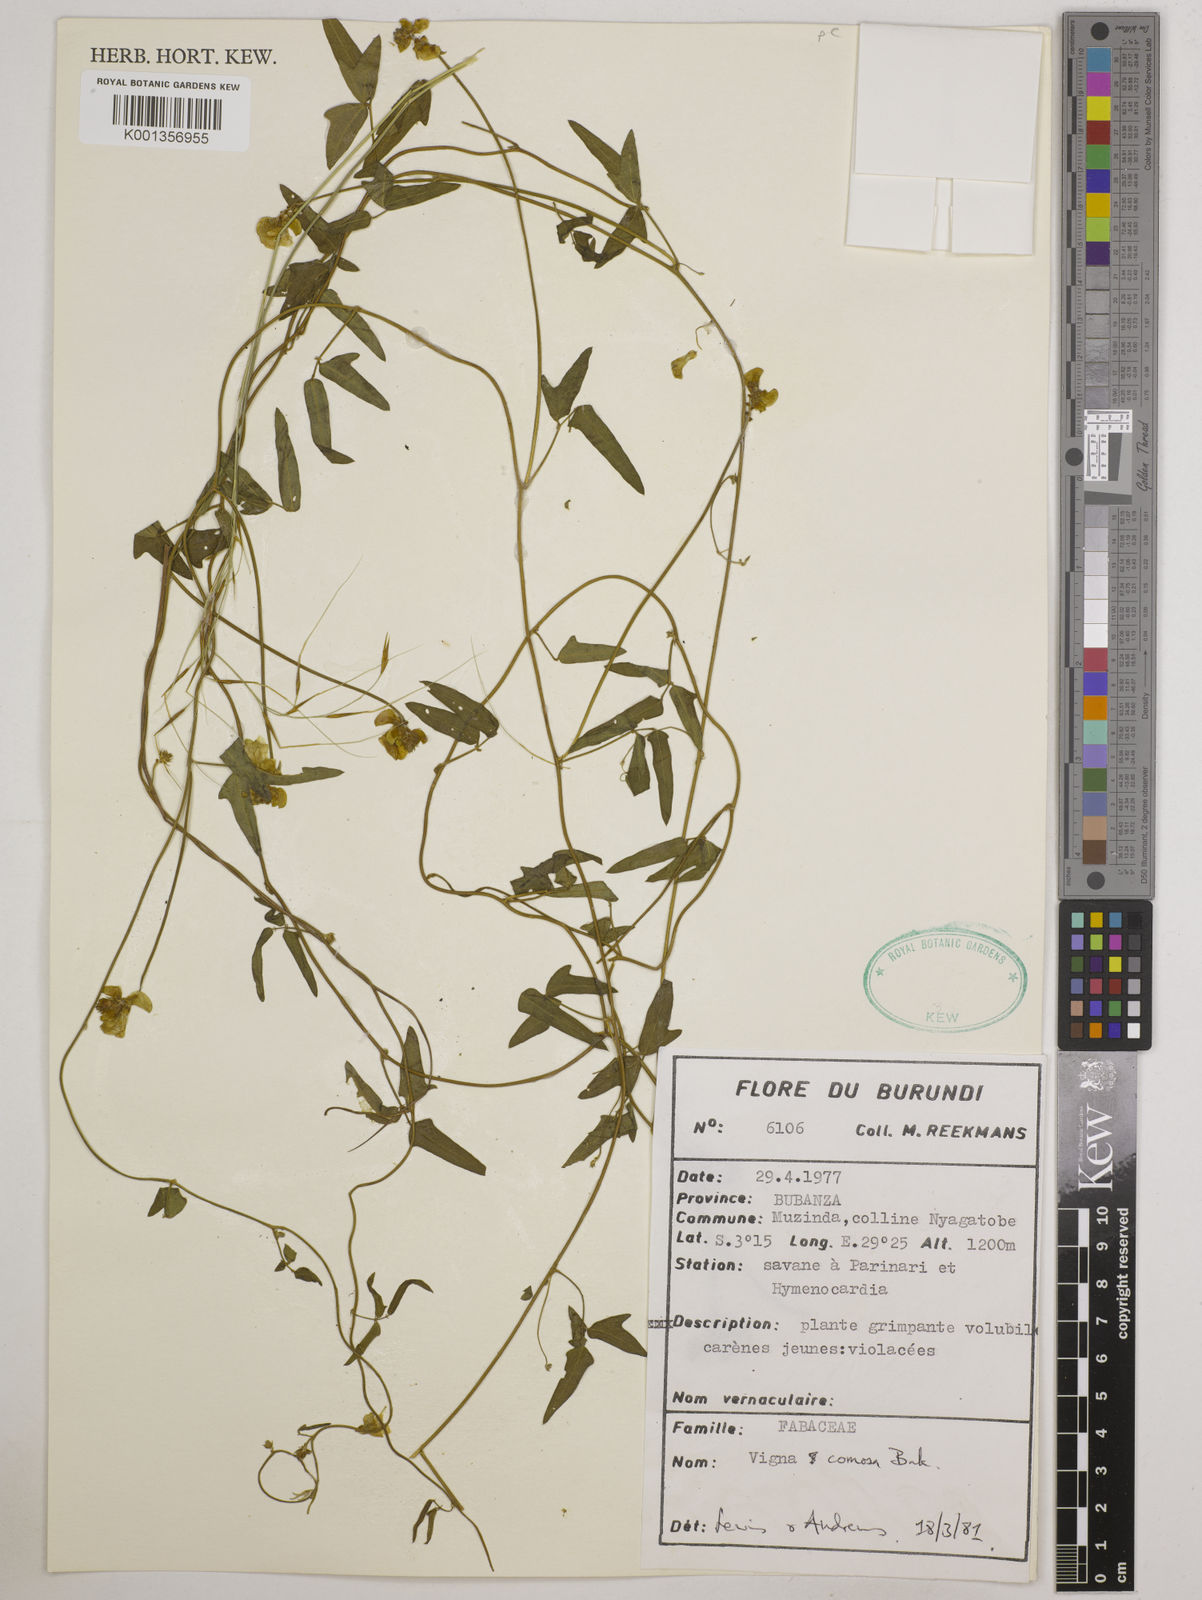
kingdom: Plantae
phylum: Tracheophyta
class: Magnoliopsida
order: Fabales
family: Fabaceae
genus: Vigna
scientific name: Vigna comosa
